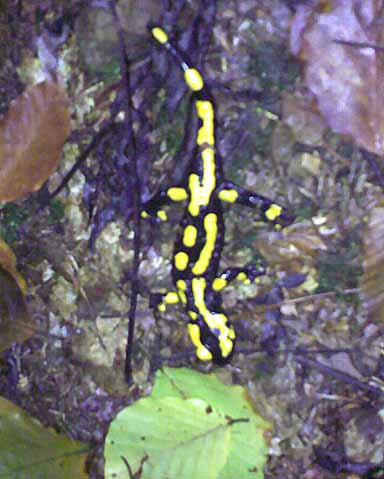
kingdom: Animalia
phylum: Chordata
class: Amphibia
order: Caudata
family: Salamandridae
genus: Salamandra
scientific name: Salamandra salamandra
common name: Fire salamander
